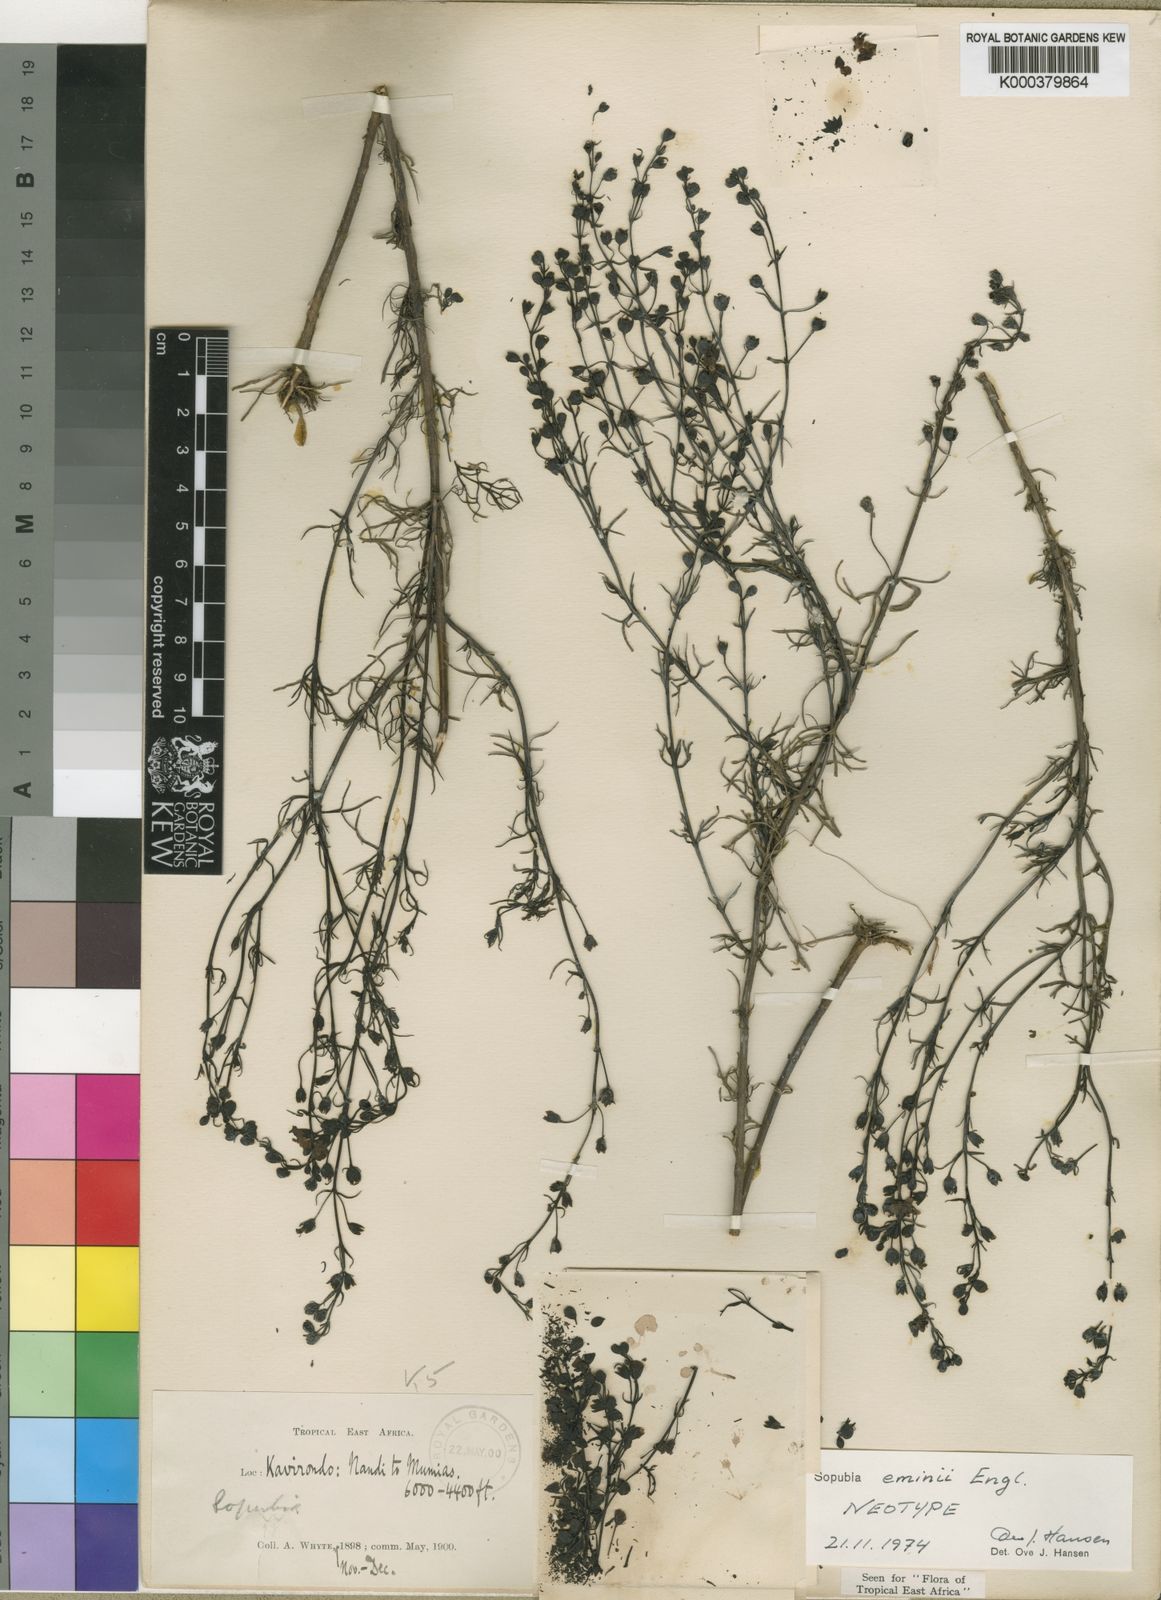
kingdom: Plantae
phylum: Tracheophyta
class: Magnoliopsida
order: Lamiales
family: Orobanchaceae
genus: Sopubia
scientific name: Sopubia trifida
